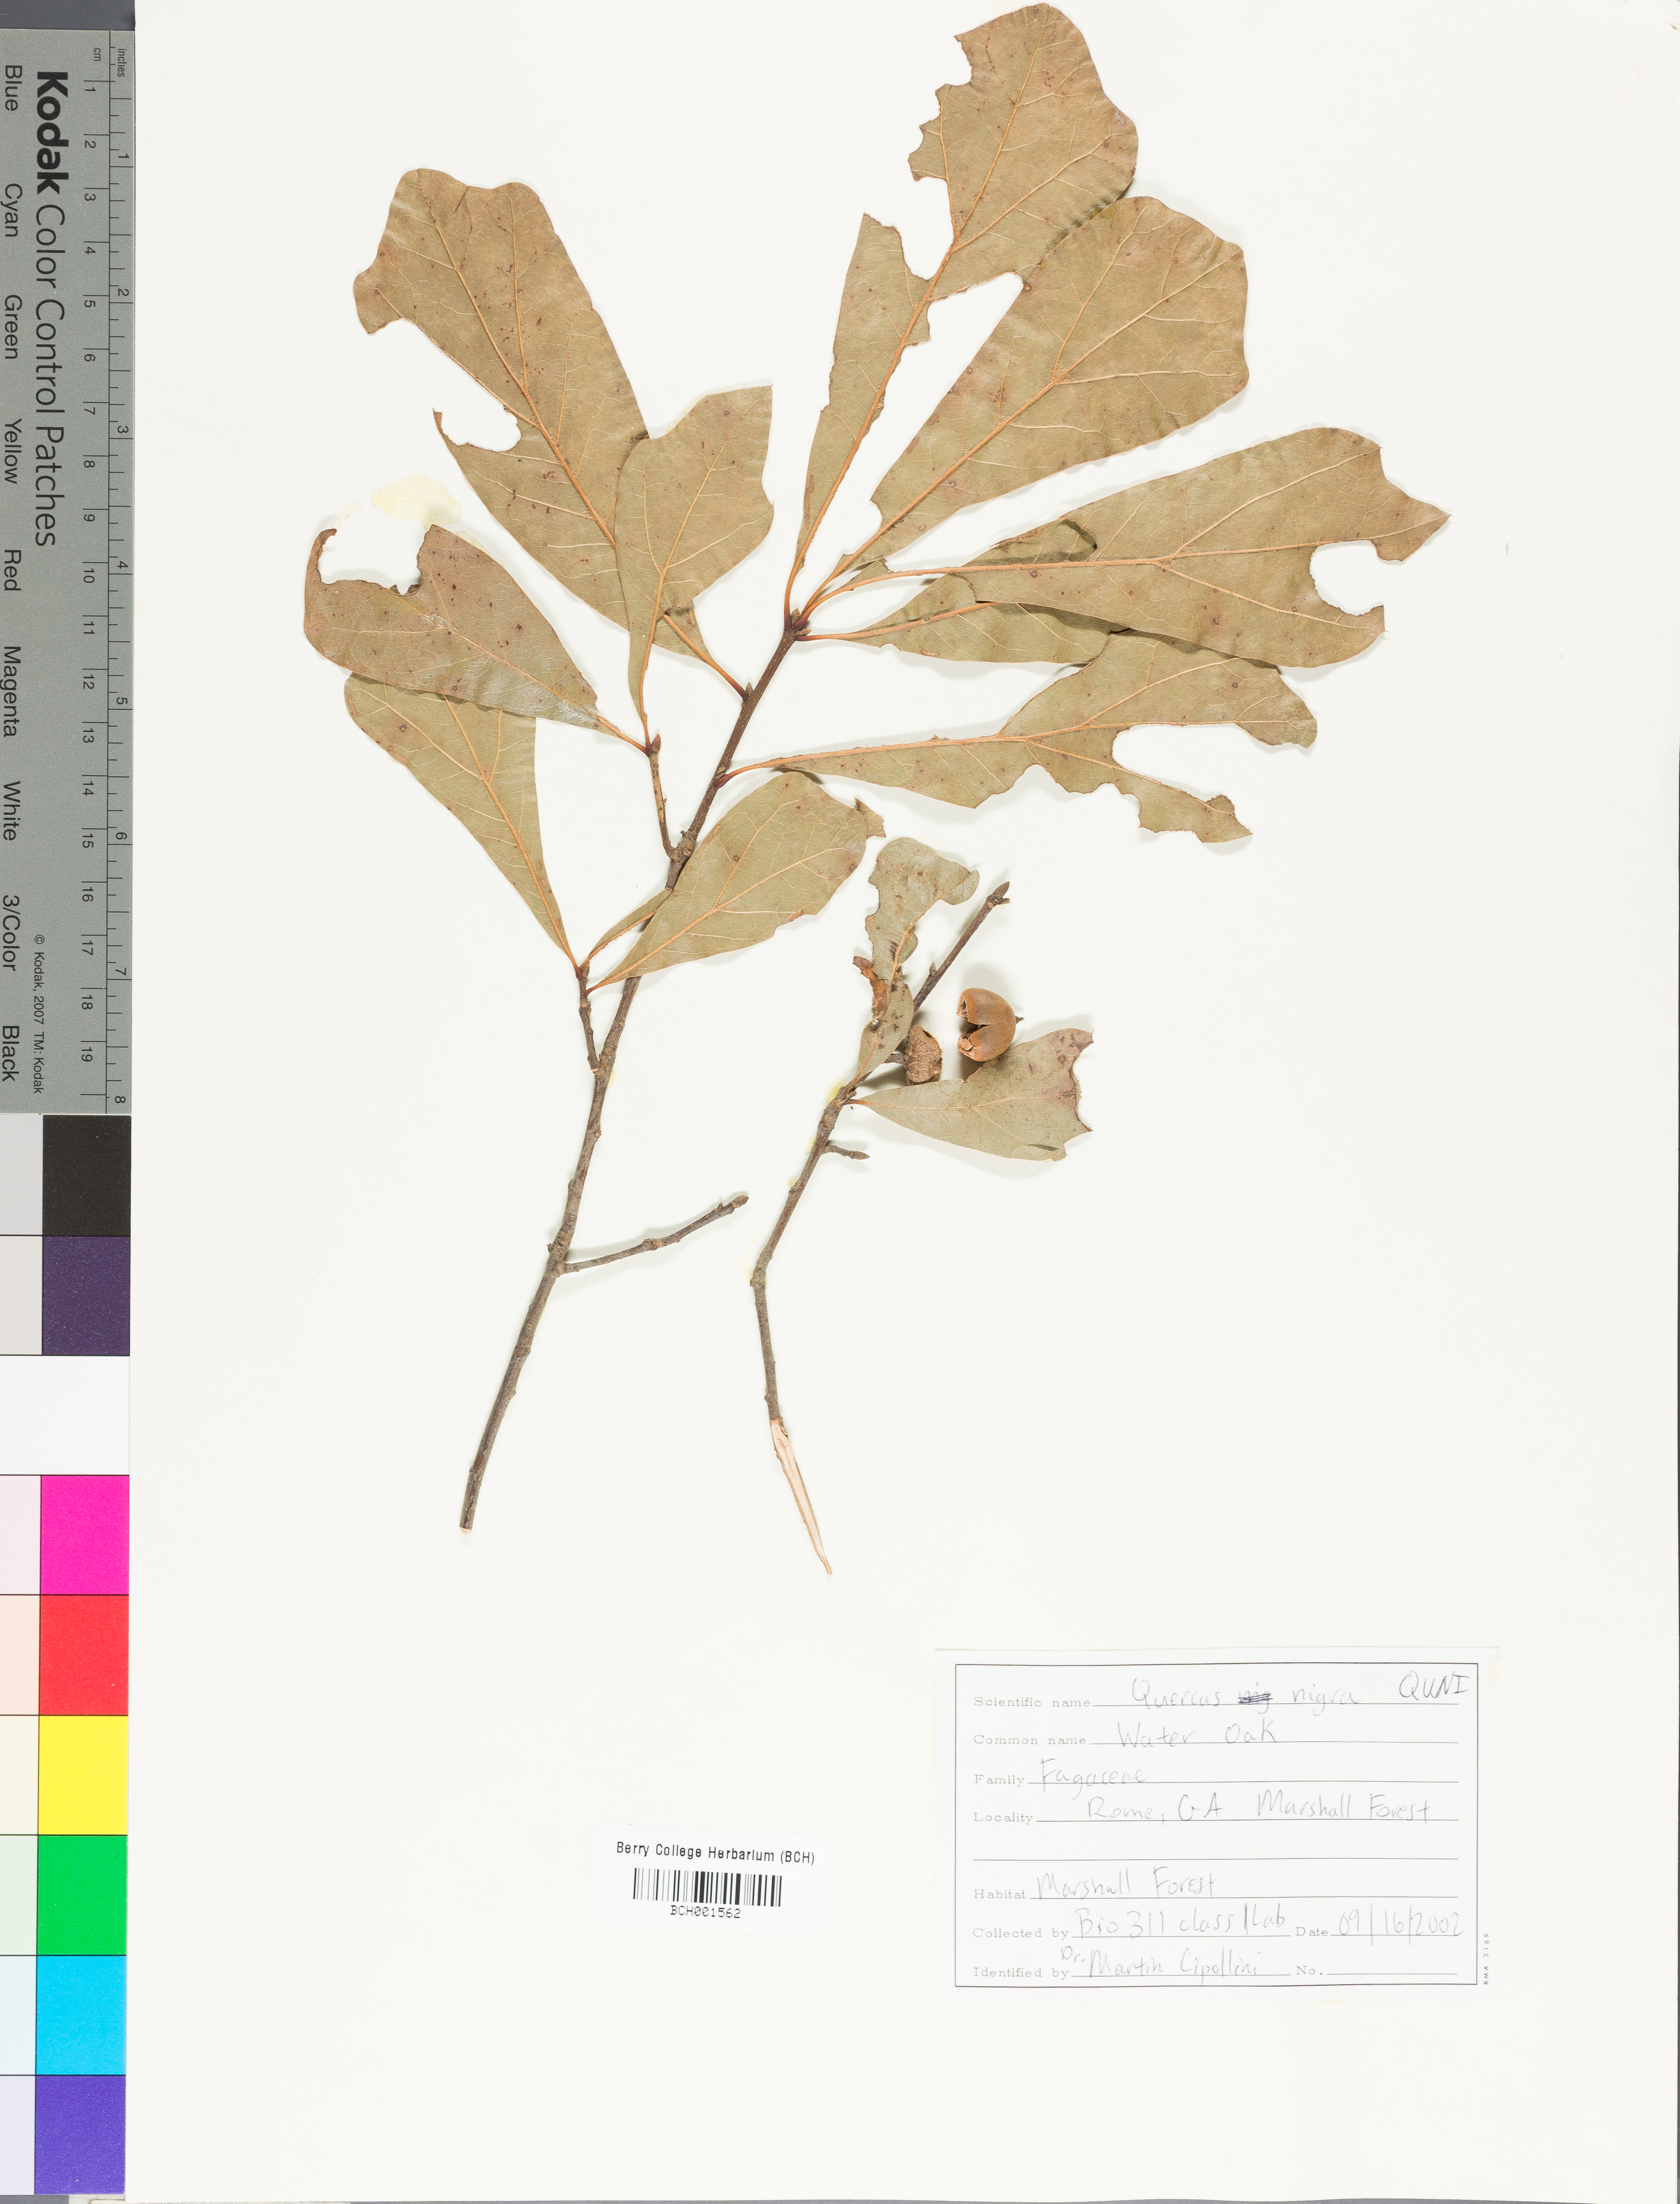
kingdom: Plantae
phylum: Tracheophyta
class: Magnoliopsida
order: Fagales
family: Fagaceae
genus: Quercus
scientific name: Quercus nigra
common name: Water oak
